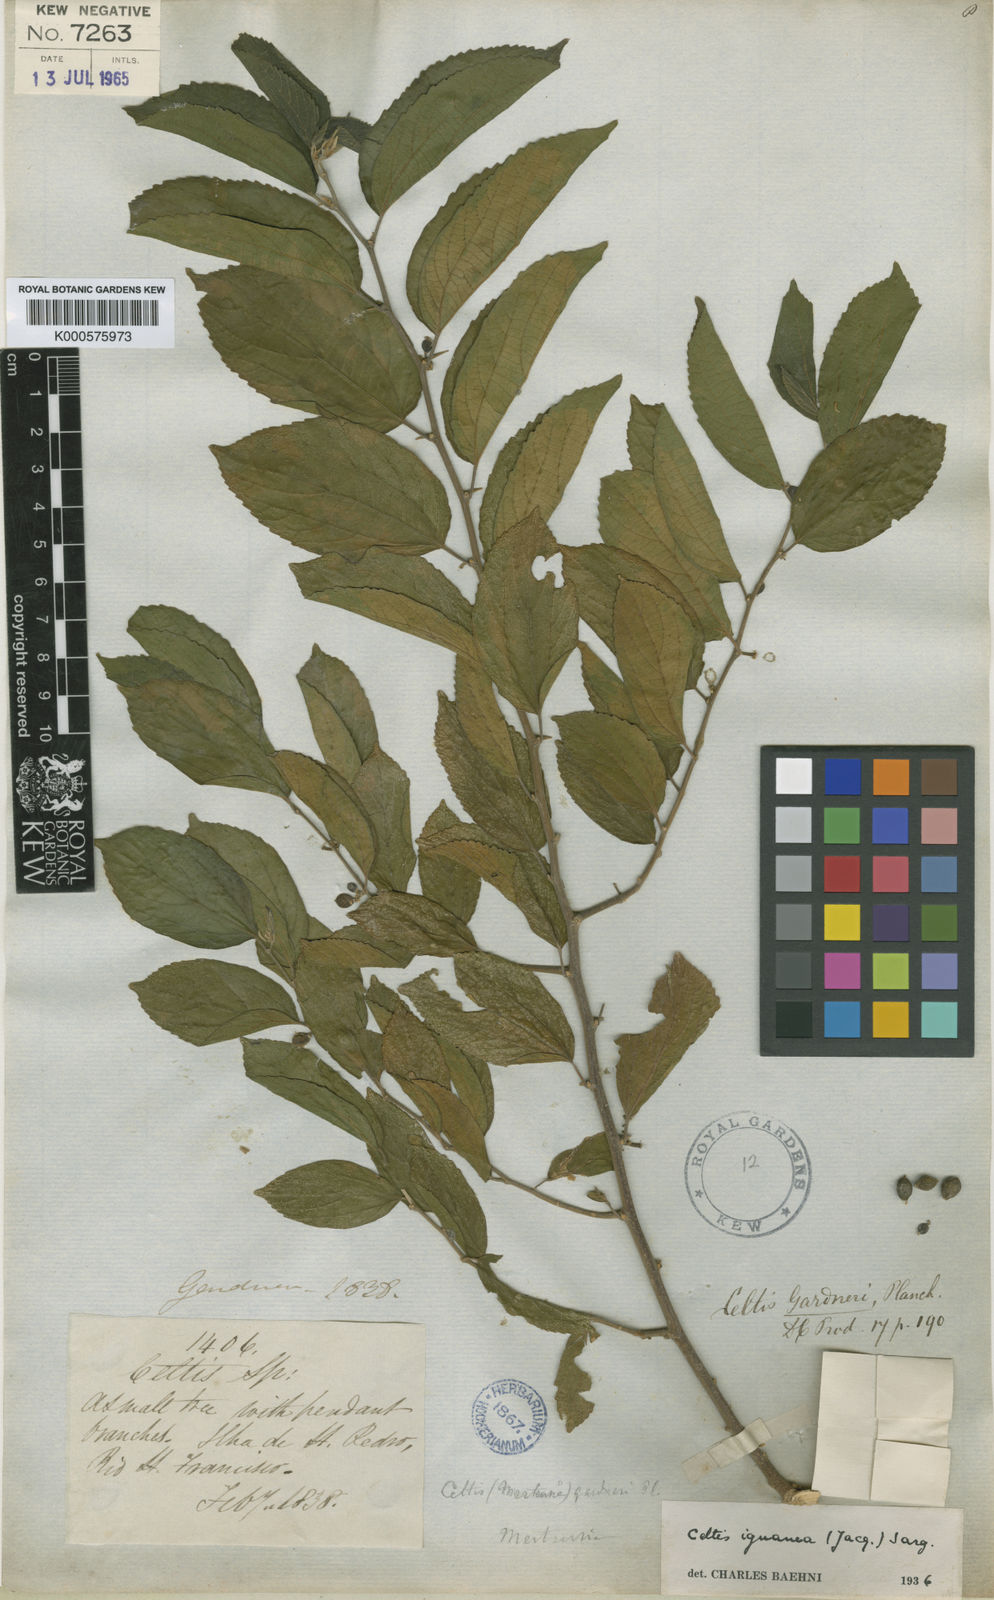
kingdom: Plantae
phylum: Tracheophyta
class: Magnoliopsida
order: Rosales
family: Cannabaceae
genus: Celtis
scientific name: Celtis iguanaea
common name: Iguana hackberry
